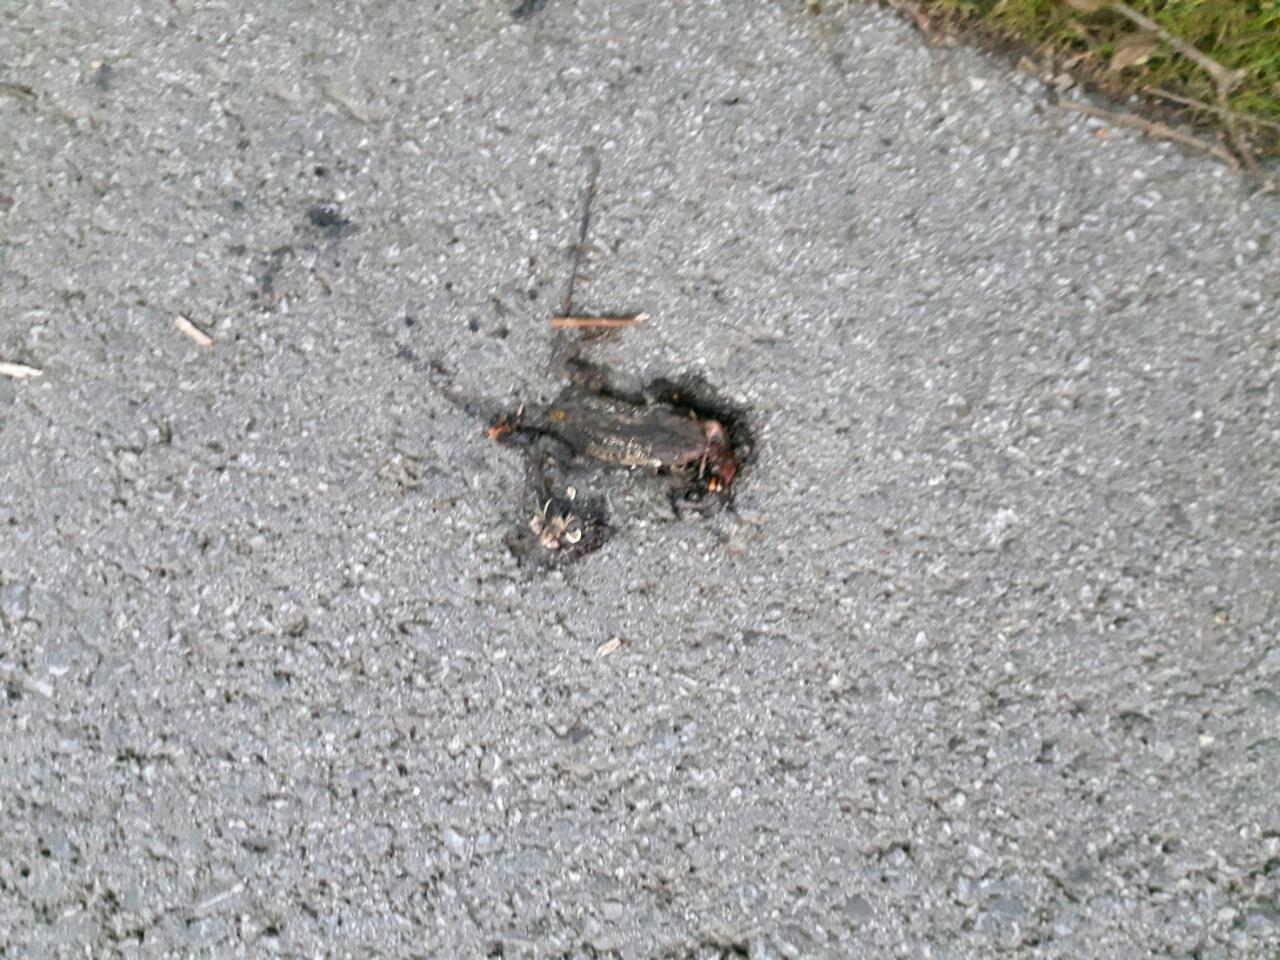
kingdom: Animalia
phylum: Chordata
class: Amphibia
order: Anura
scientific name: Anura
